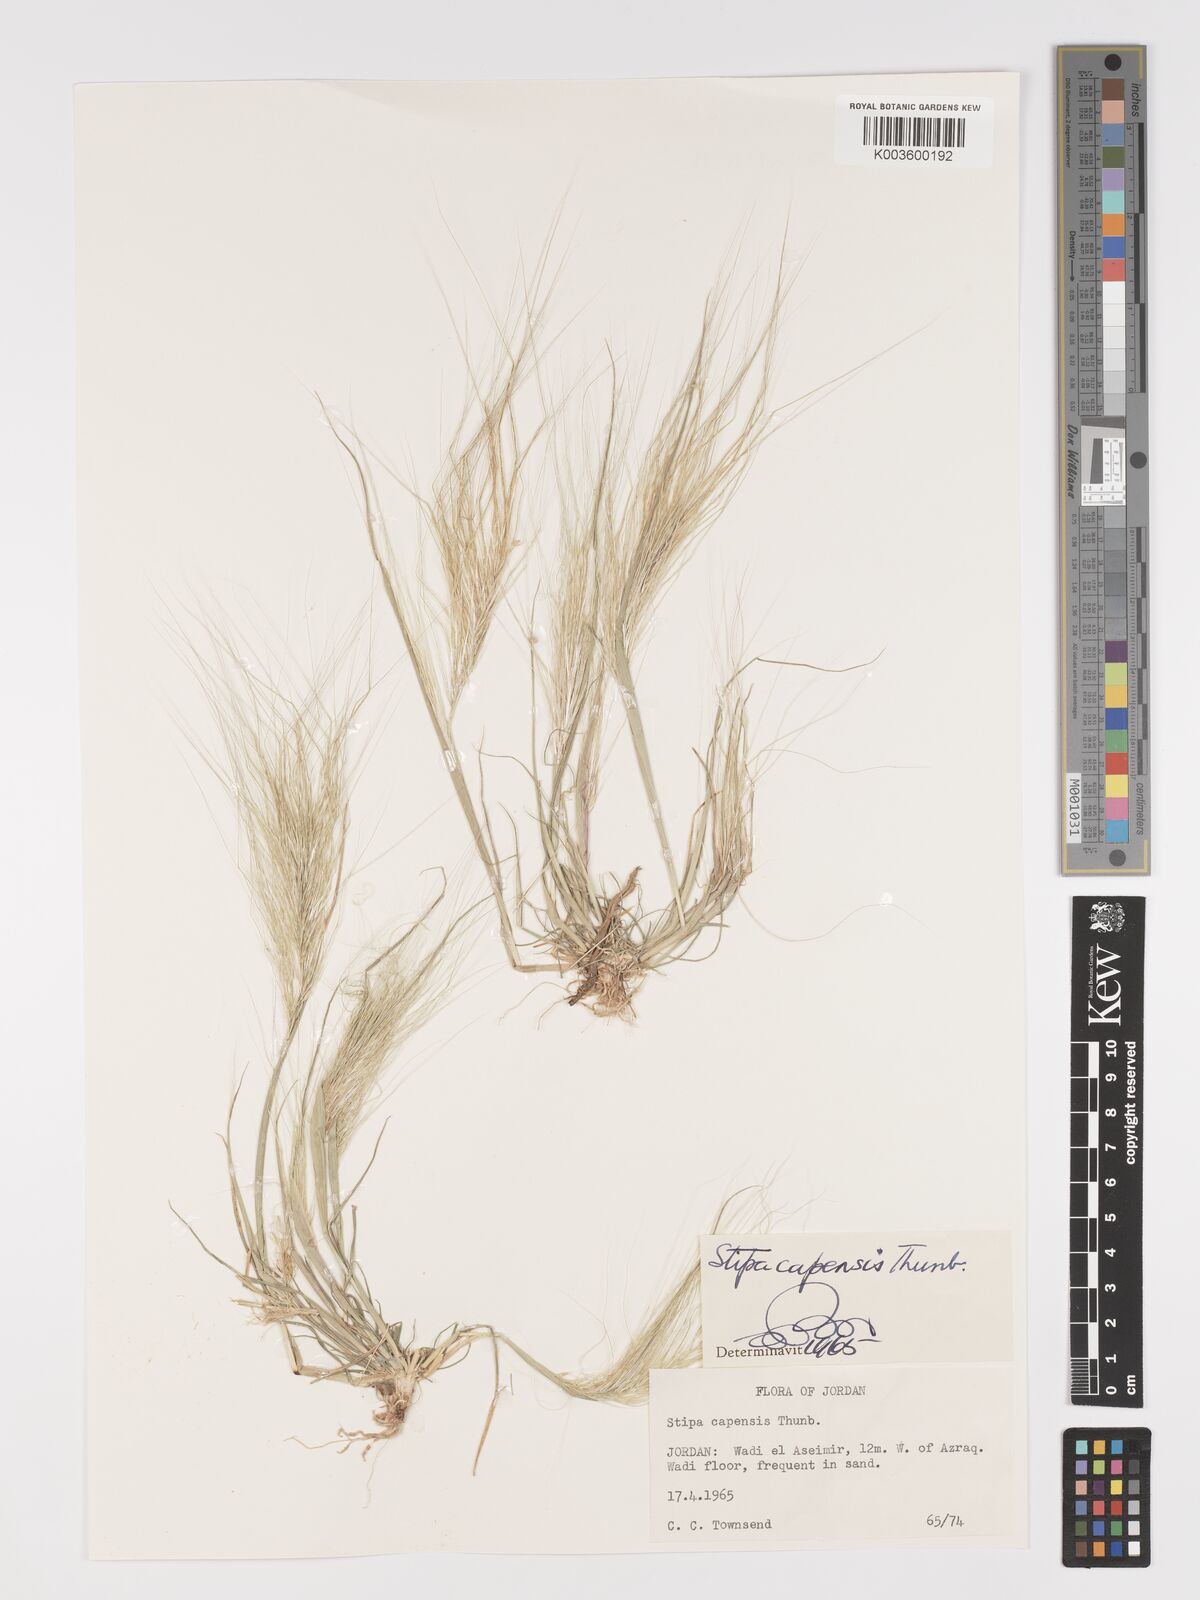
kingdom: Plantae
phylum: Tracheophyta
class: Liliopsida
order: Poales
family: Poaceae
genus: Stipellula
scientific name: Stipellula capensis
